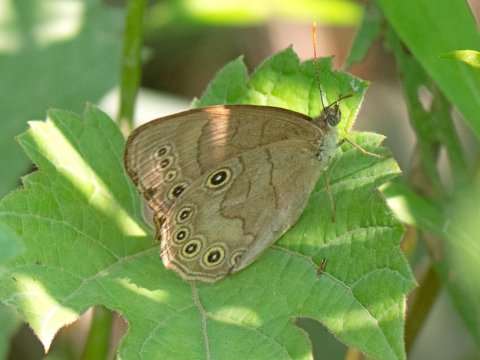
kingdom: Animalia
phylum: Arthropoda
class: Insecta
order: Lepidoptera
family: Nymphalidae
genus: Lethe
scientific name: Lethe eurydice
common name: Appalachian Eyed Brown
